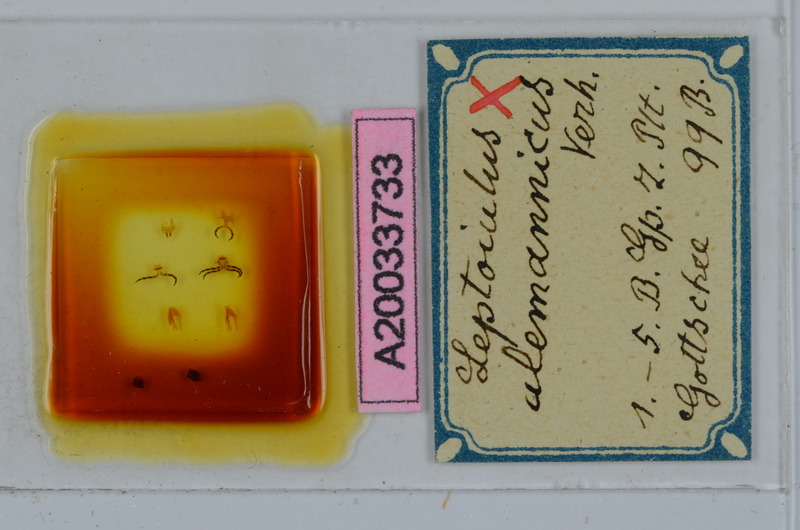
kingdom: Animalia
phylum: Arthropoda
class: Diplopoda
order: Julida
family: Julidae
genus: Leptoiulus
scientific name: Leptoiulus alemannicus
